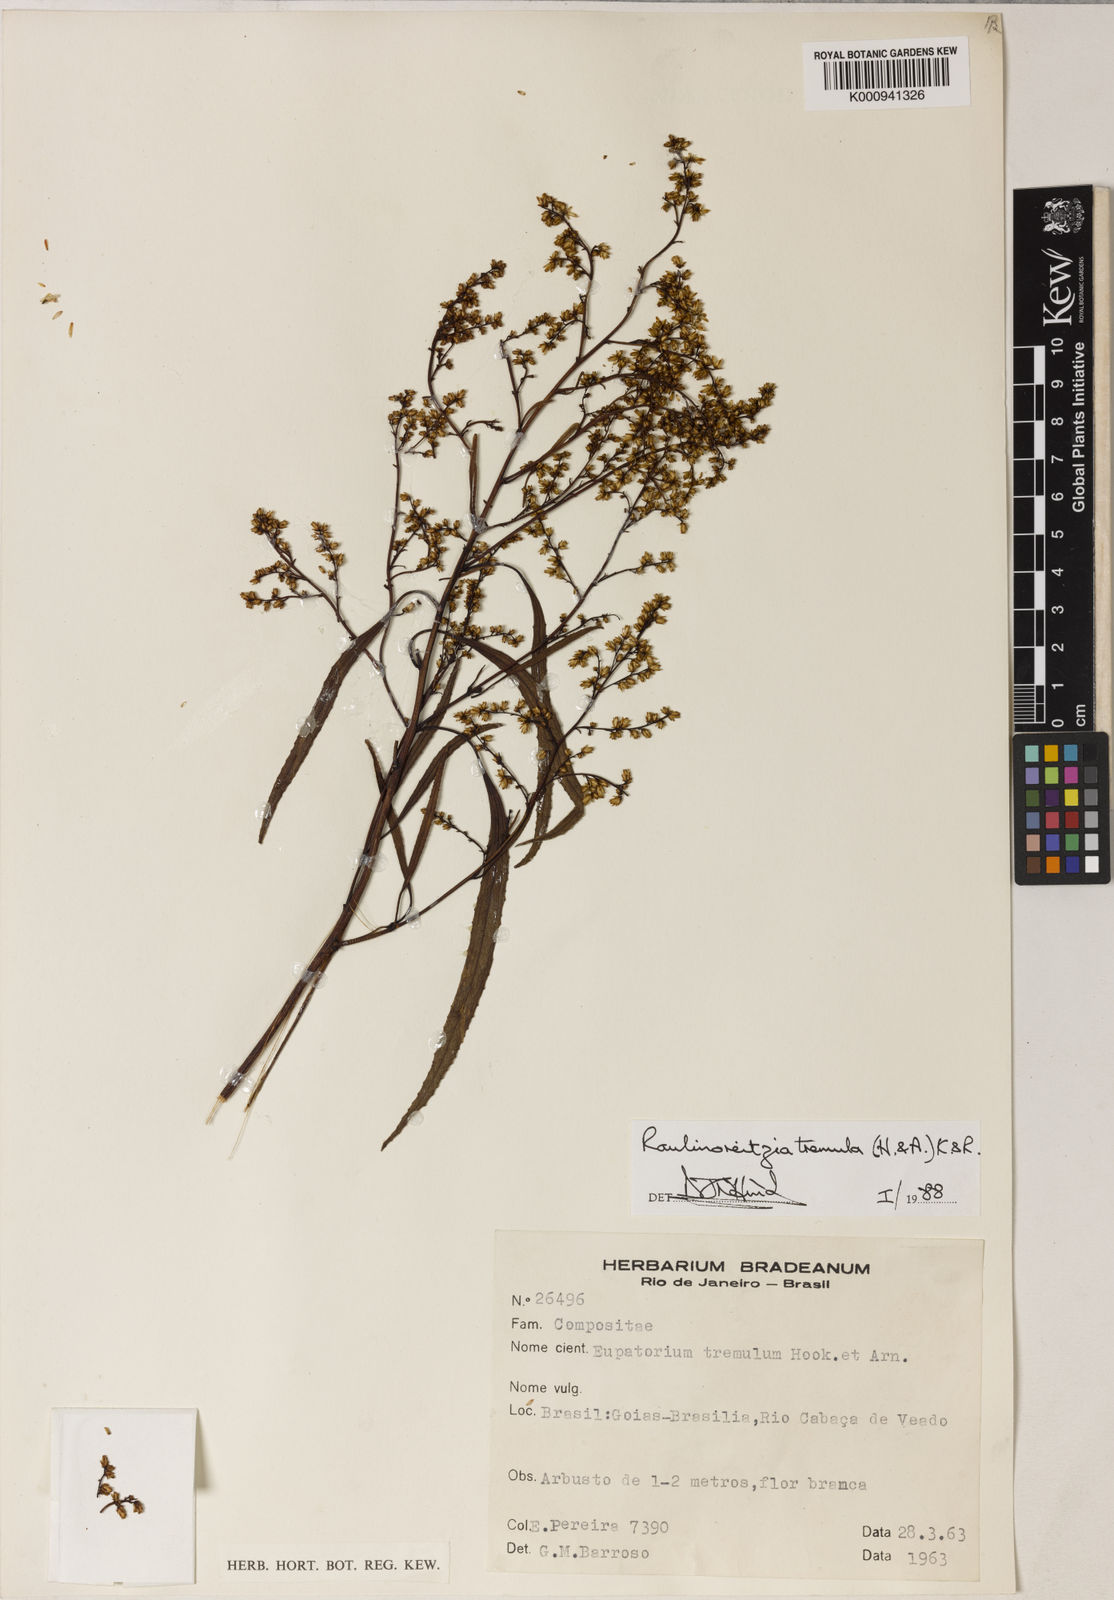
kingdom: Plantae
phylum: Tracheophyta
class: Magnoliopsida
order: Asterales
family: Asteraceae
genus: Raulinoreitzia
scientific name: Raulinoreitzia tremula
